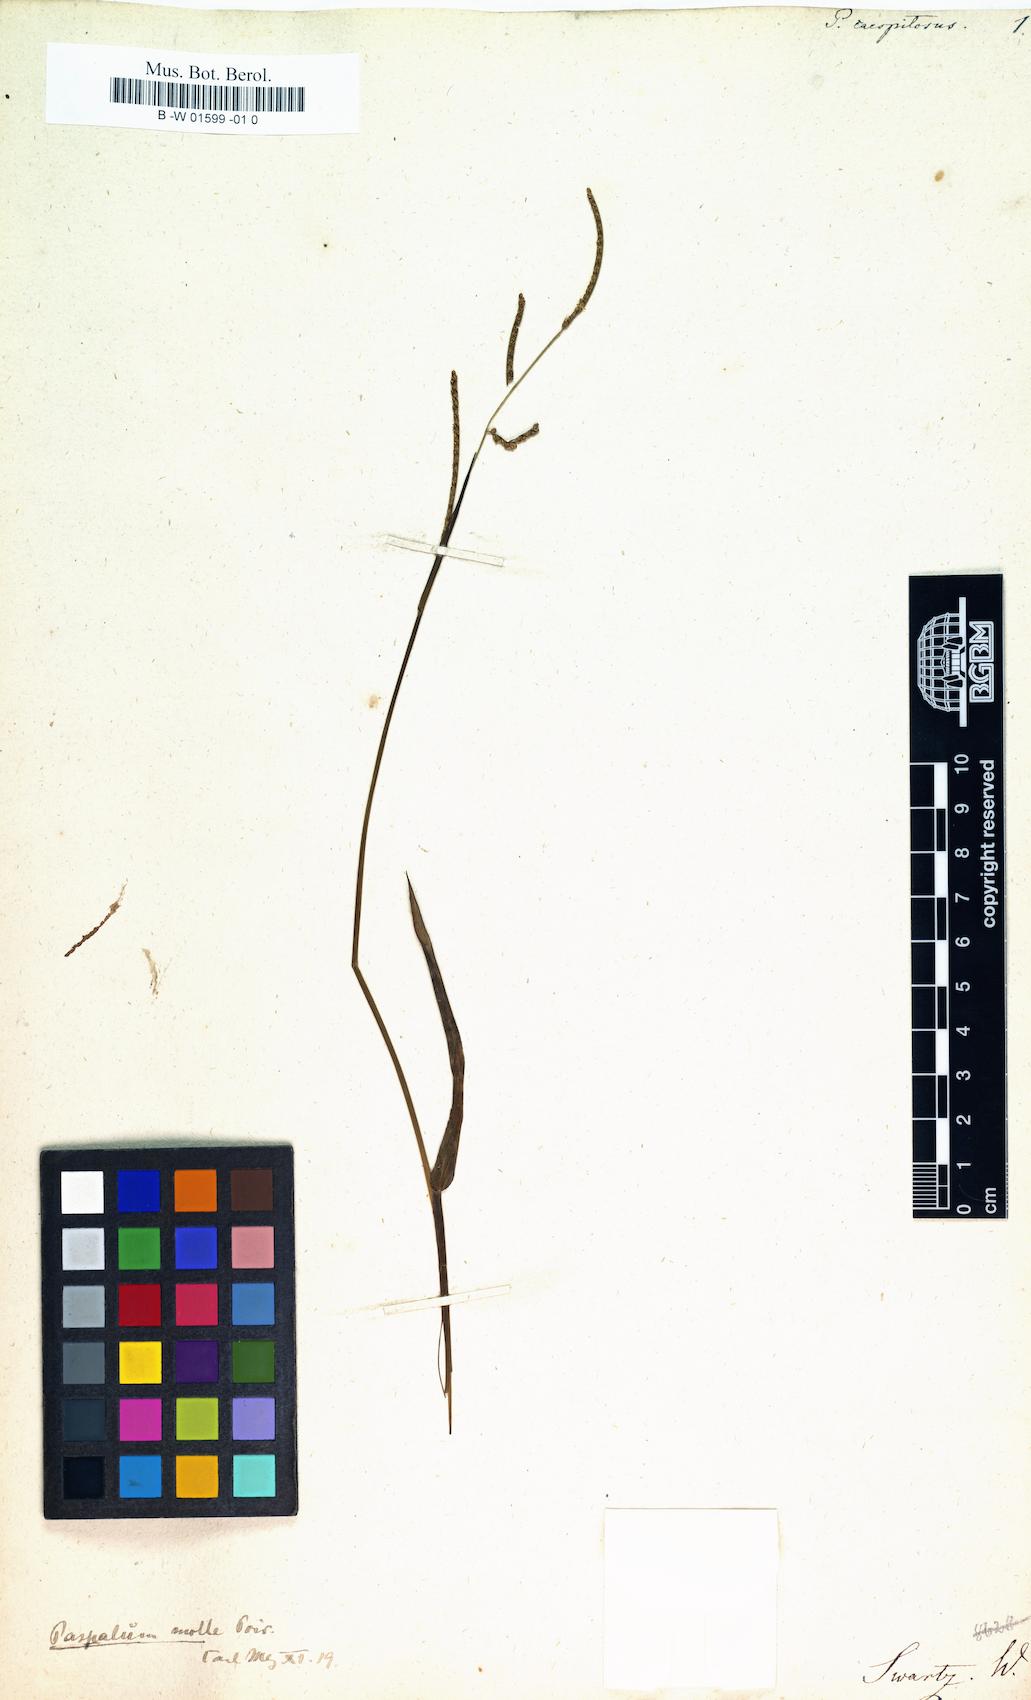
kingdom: Plantae
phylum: Tracheophyta
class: Liliopsida
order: Poales
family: Poaceae
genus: Paspalus
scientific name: Paspalus
